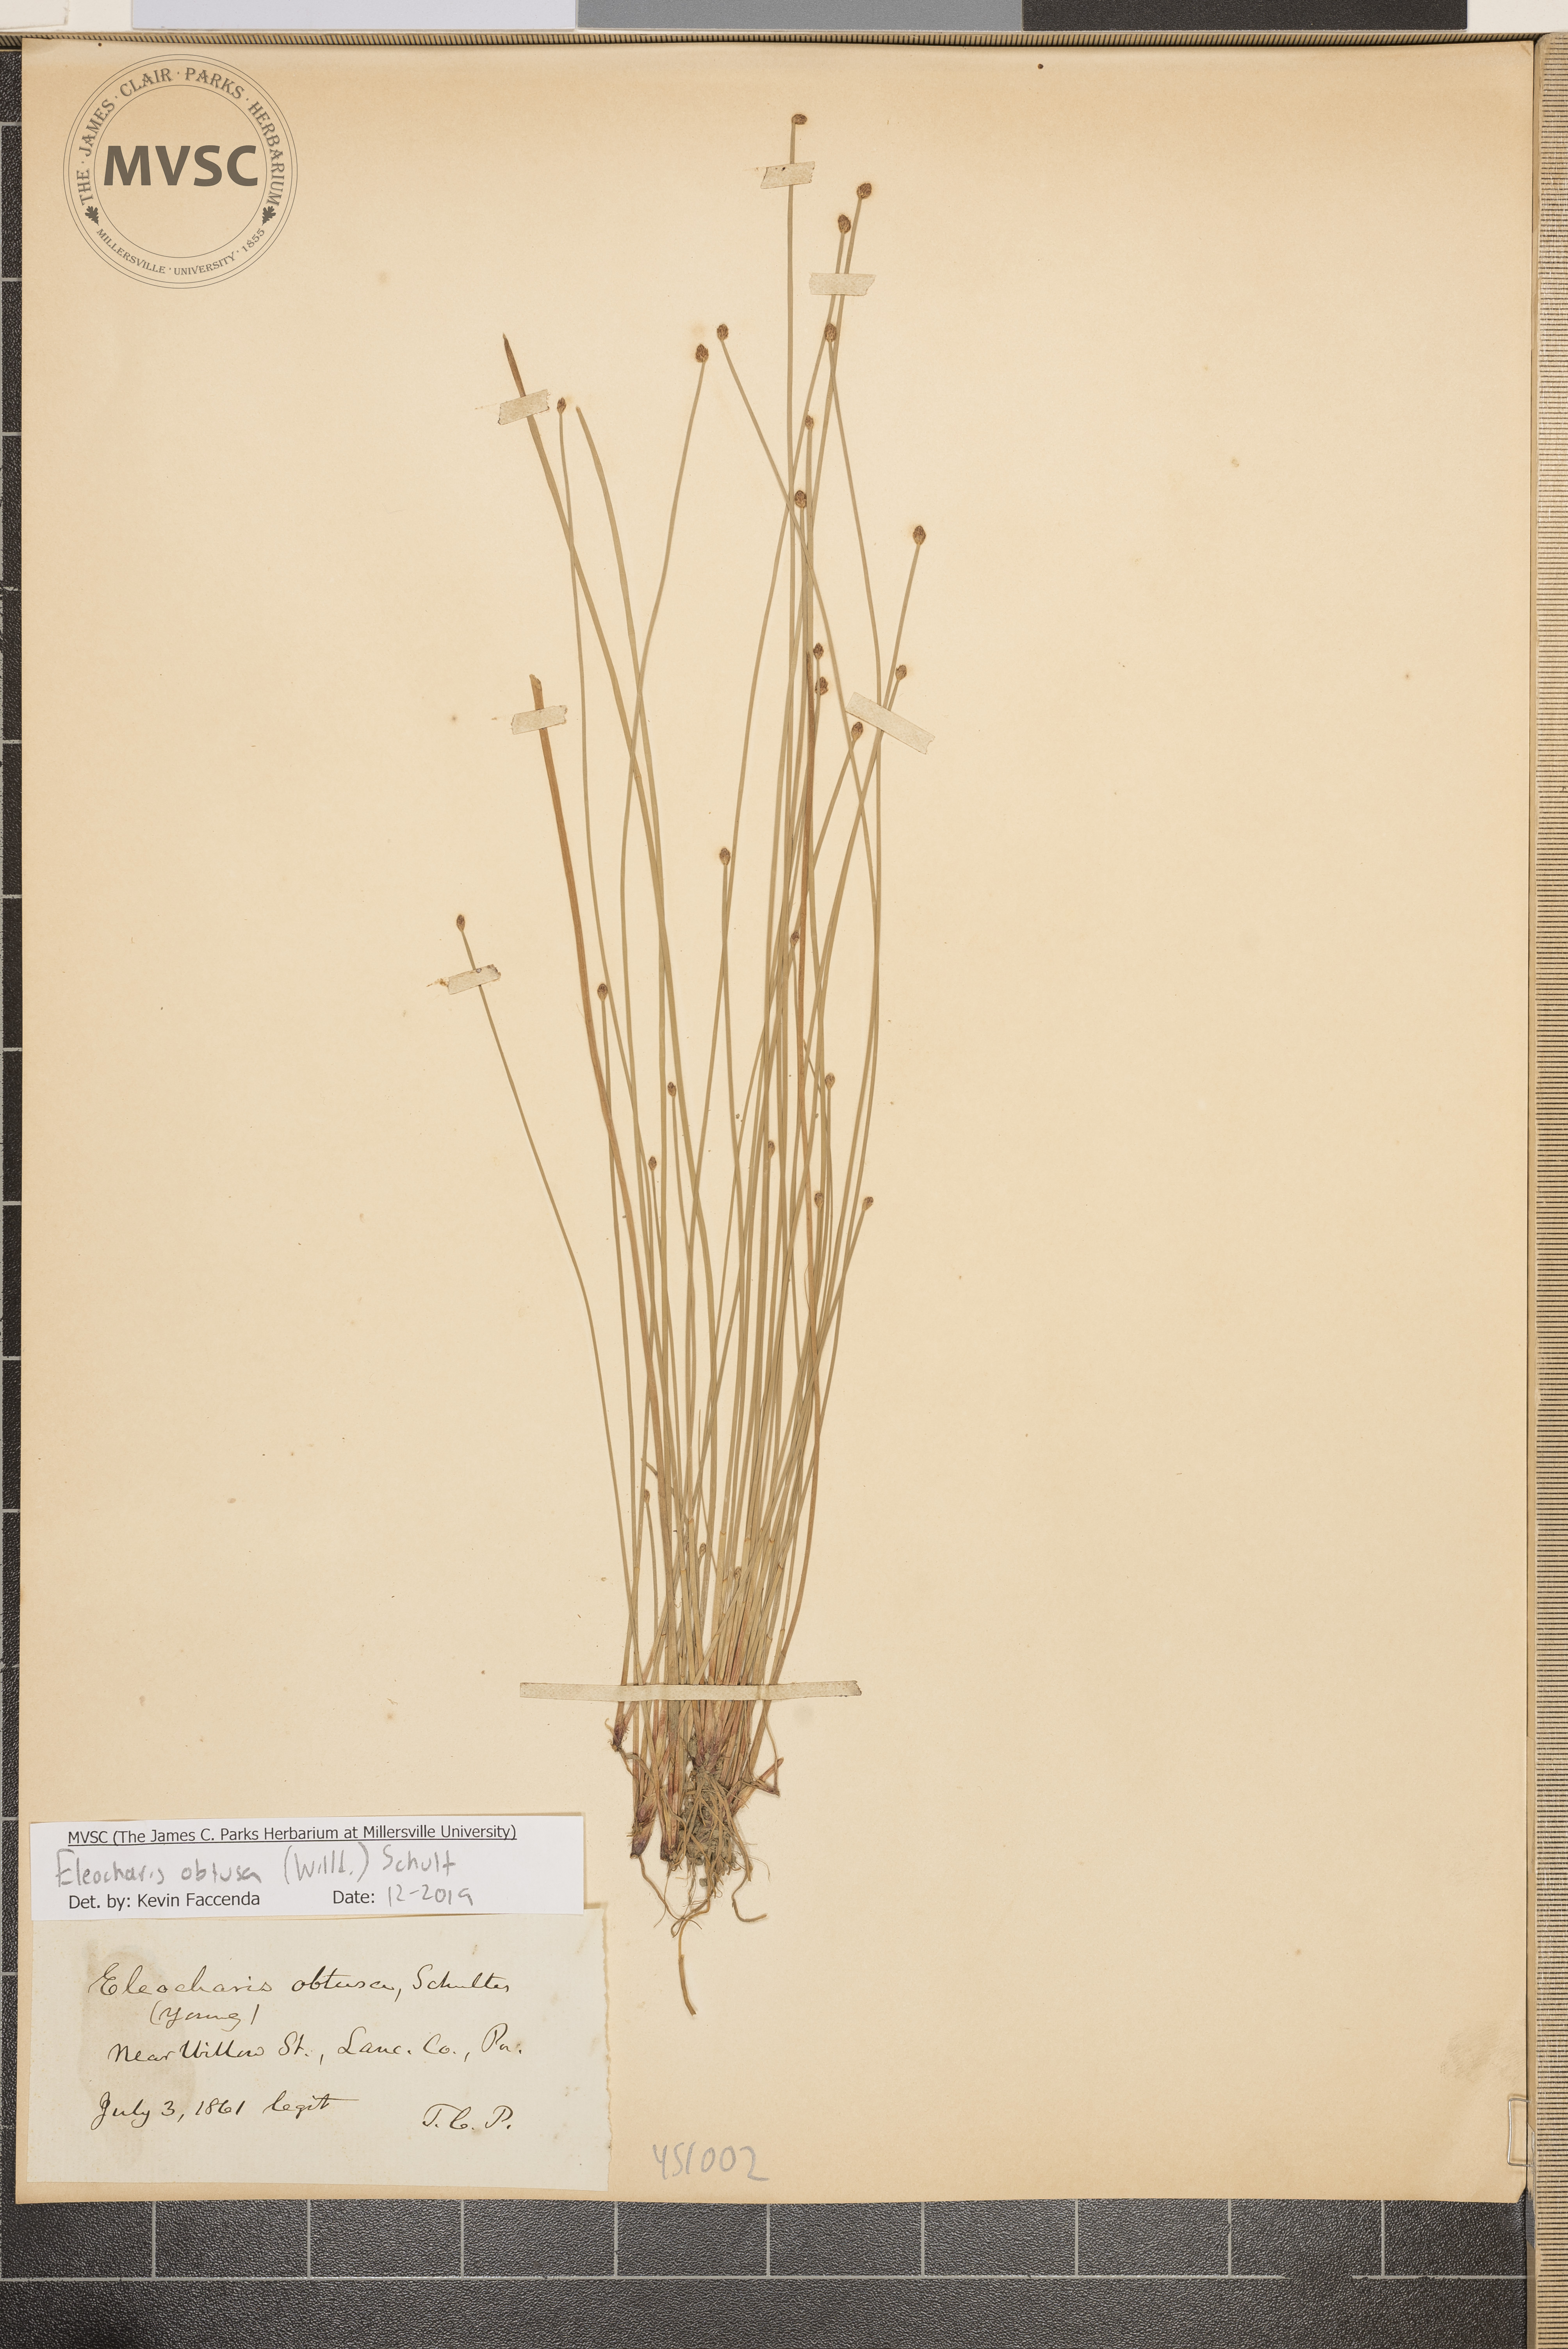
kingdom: Plantae
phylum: Tracheophyta
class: Liliopsida
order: Poales
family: Cyperaceae
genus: Eleocharis
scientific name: Eleocharis obtusa
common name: Blunt spikerush
